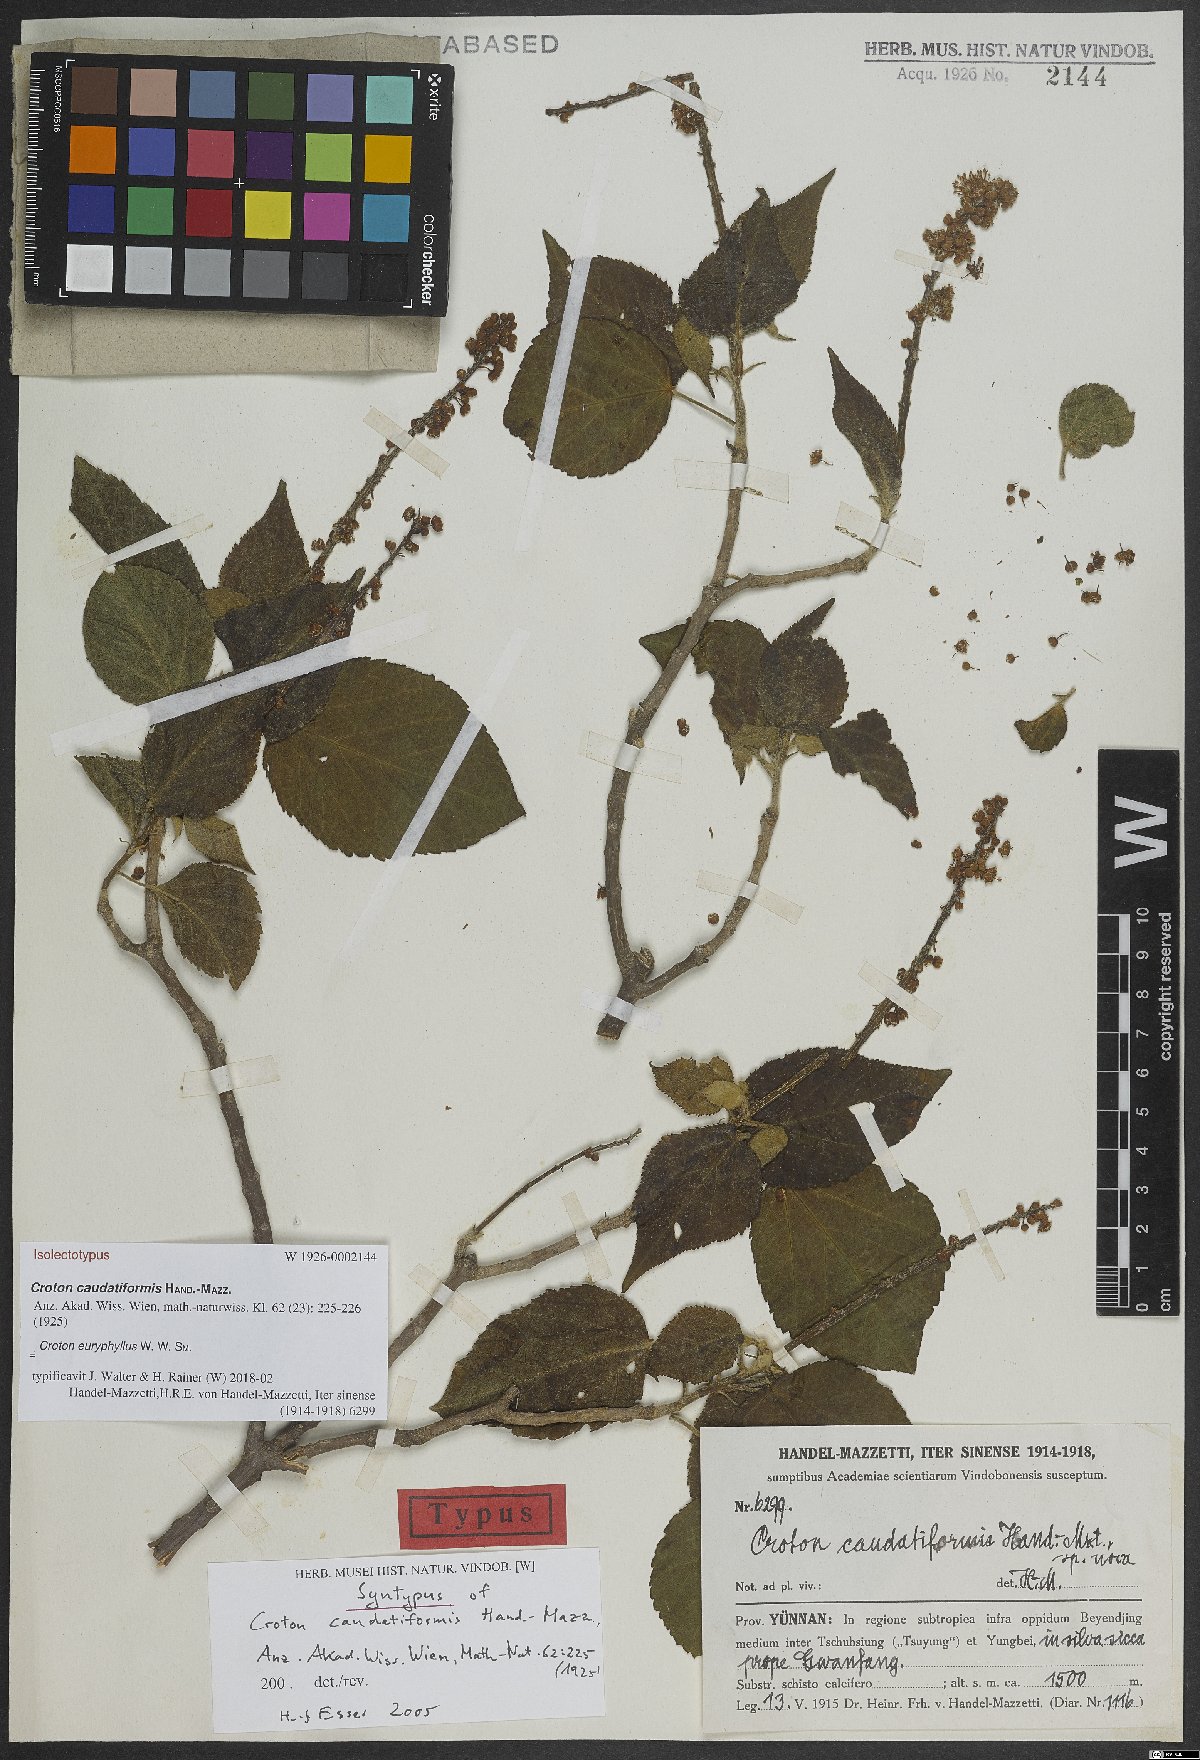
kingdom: Plantae
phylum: Tracheophyta
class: Magnoliopsida
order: Malpighiales
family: Euphorbiaceae
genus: Croton
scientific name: Croton euryphyllus
